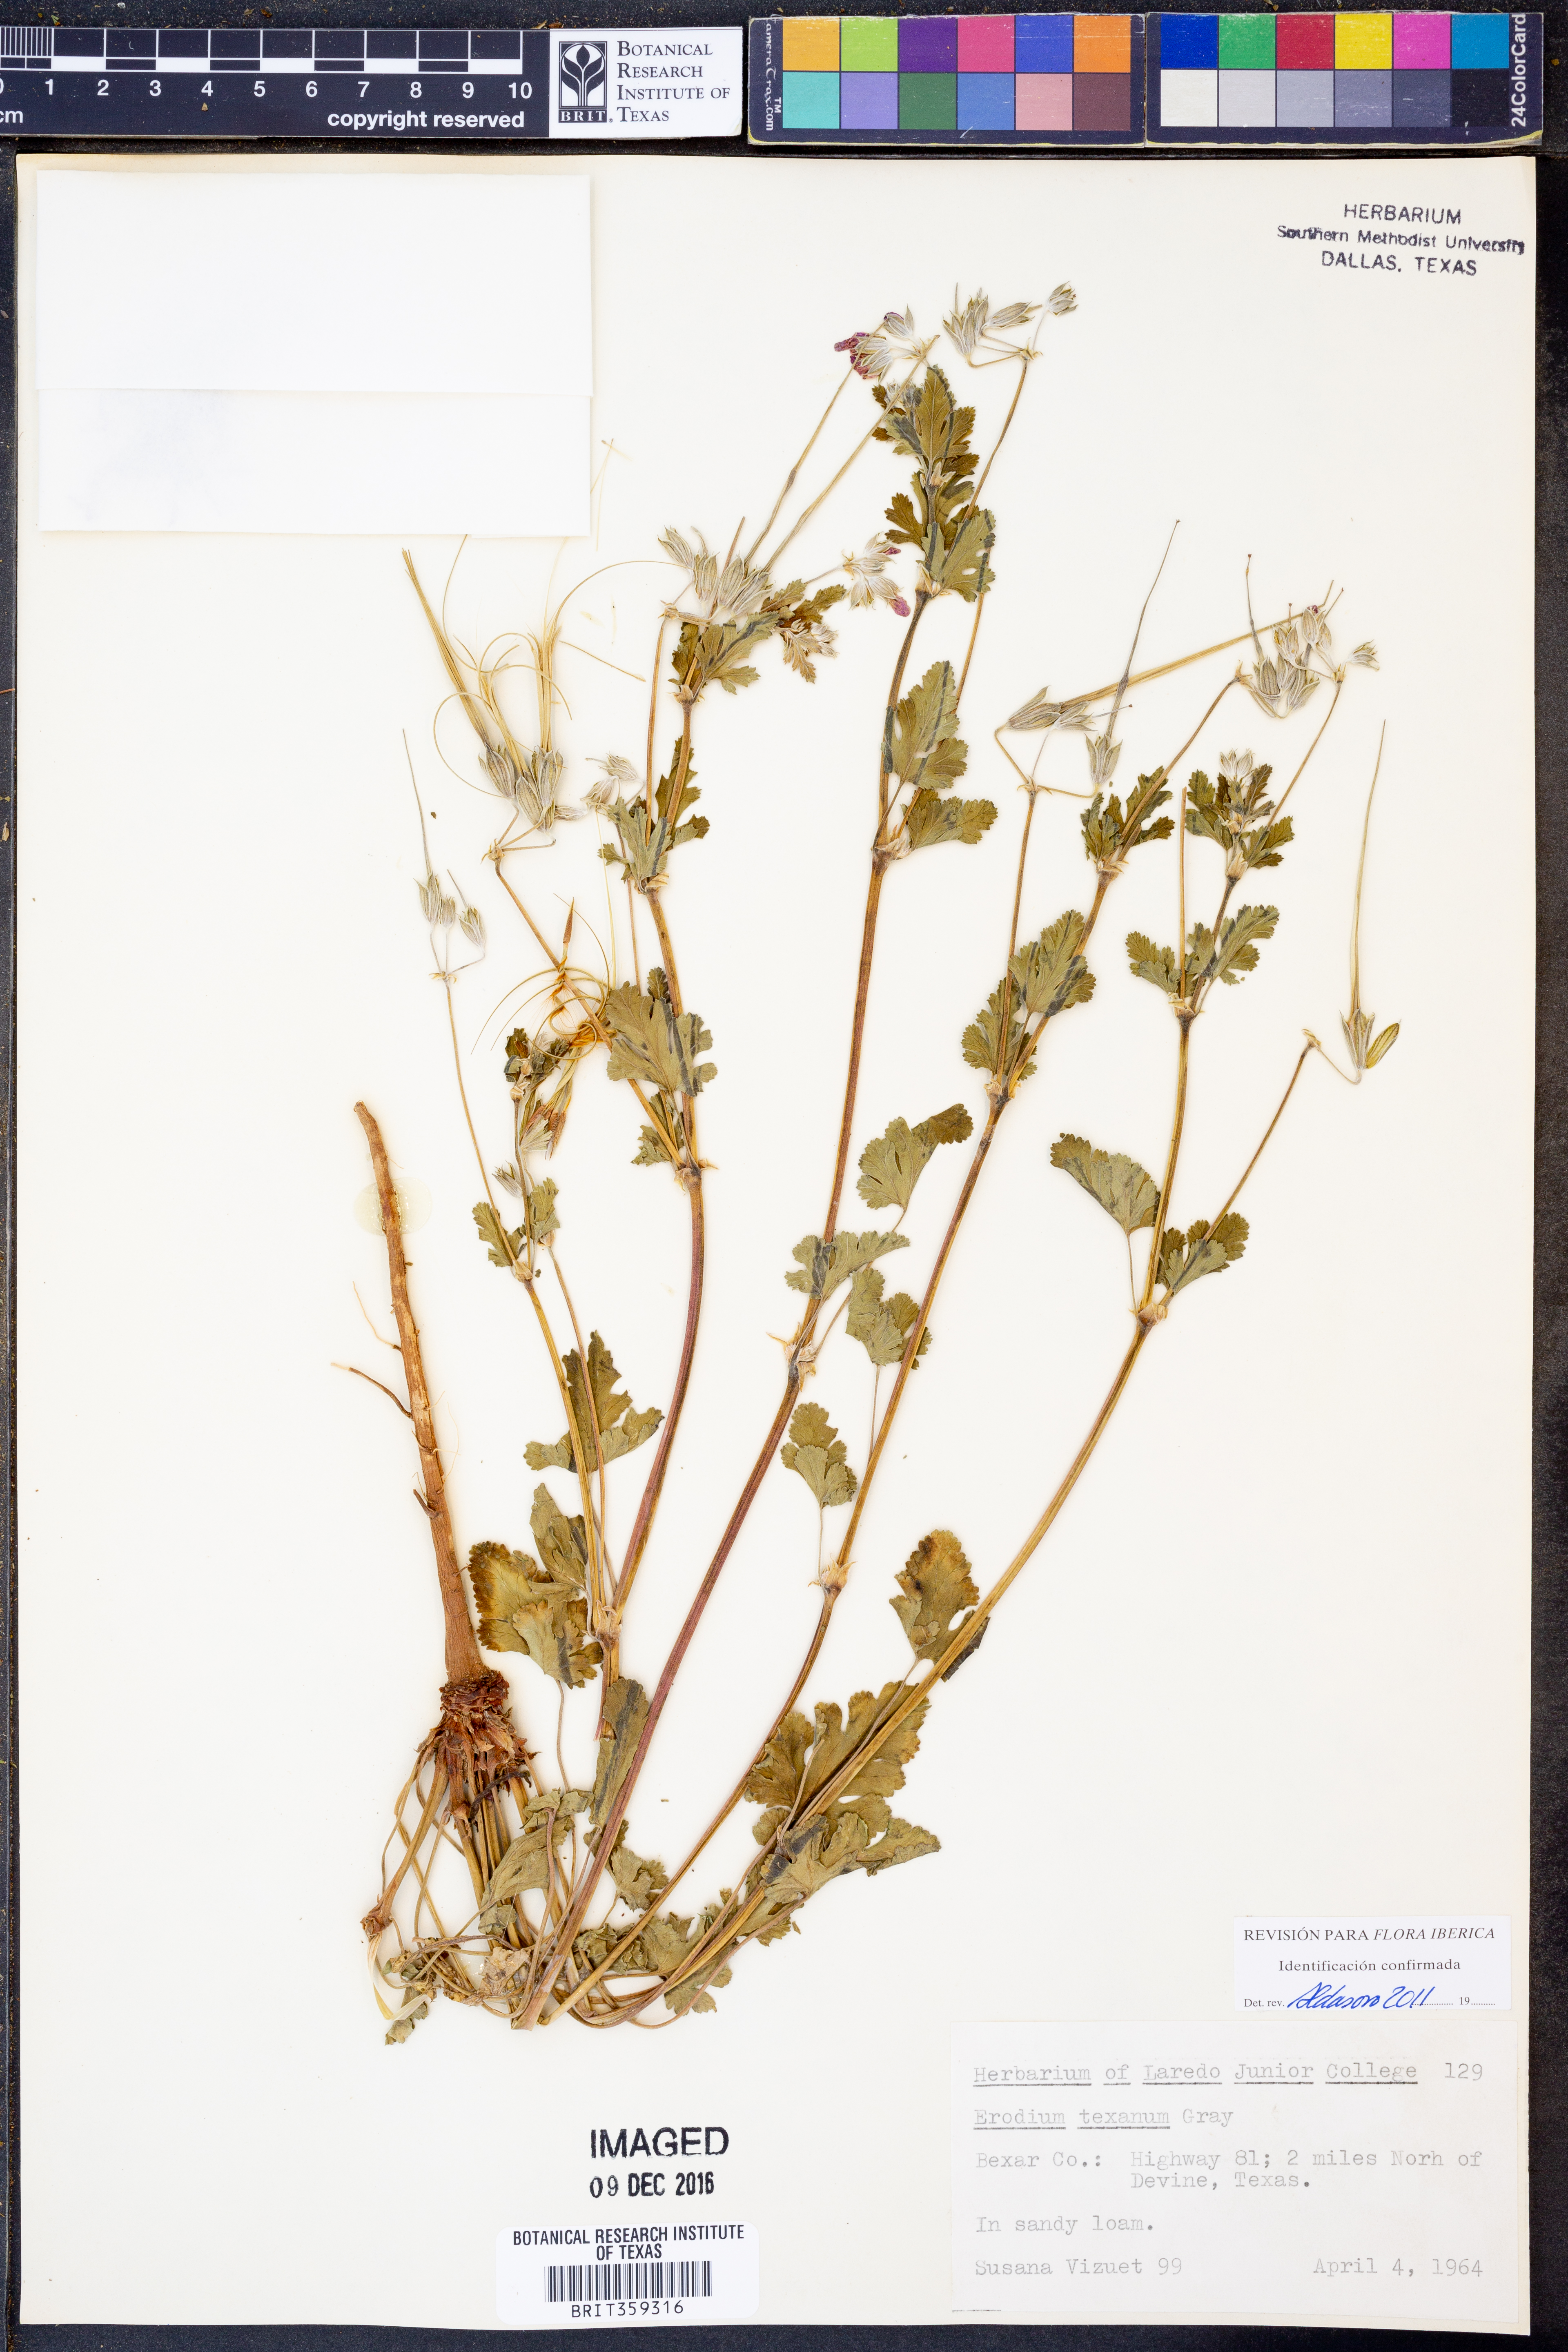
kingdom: Plantae
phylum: Tracheophyta
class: Magnoliopsida
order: Geraniales
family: Geraniaceae
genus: Erodium
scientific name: Erodium texanum
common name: Texas stork's-bill
